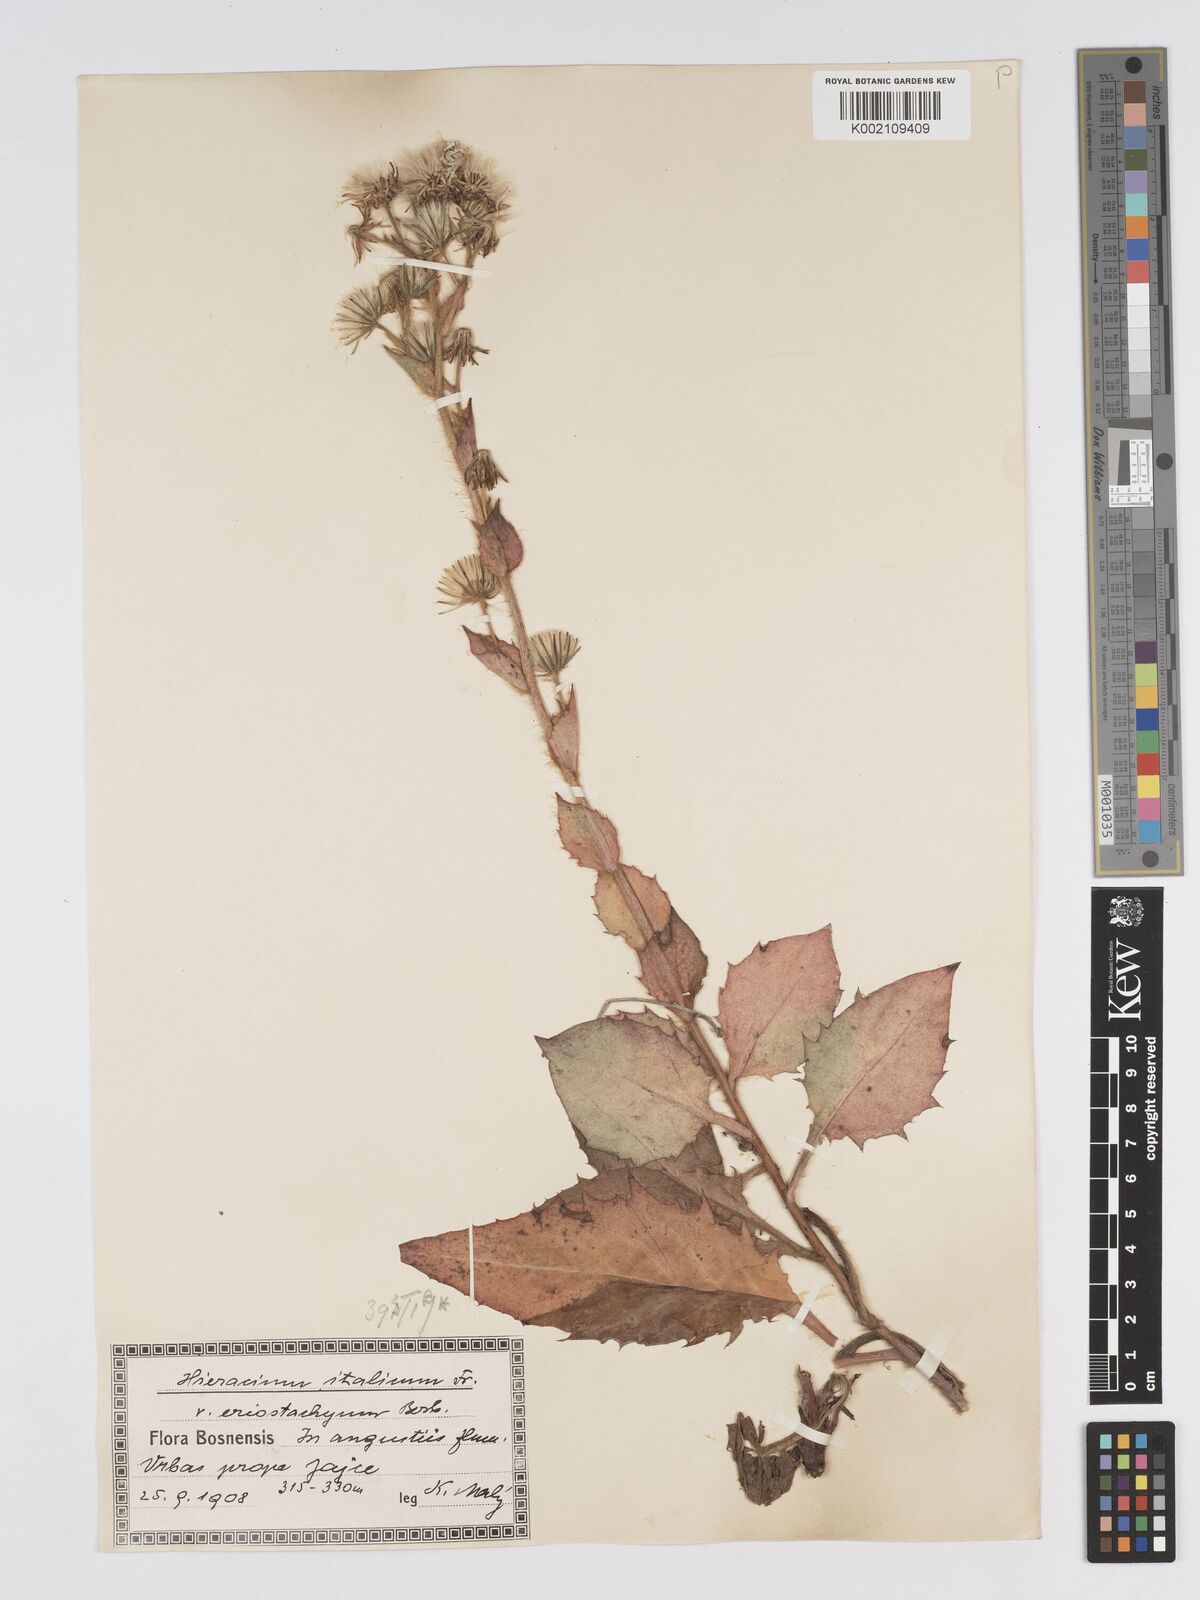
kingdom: Plantae
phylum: Tracheophyta
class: Magnoliopsida
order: Asterales
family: Asteraceae
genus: Hieracium
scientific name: Hieracium racemosum
